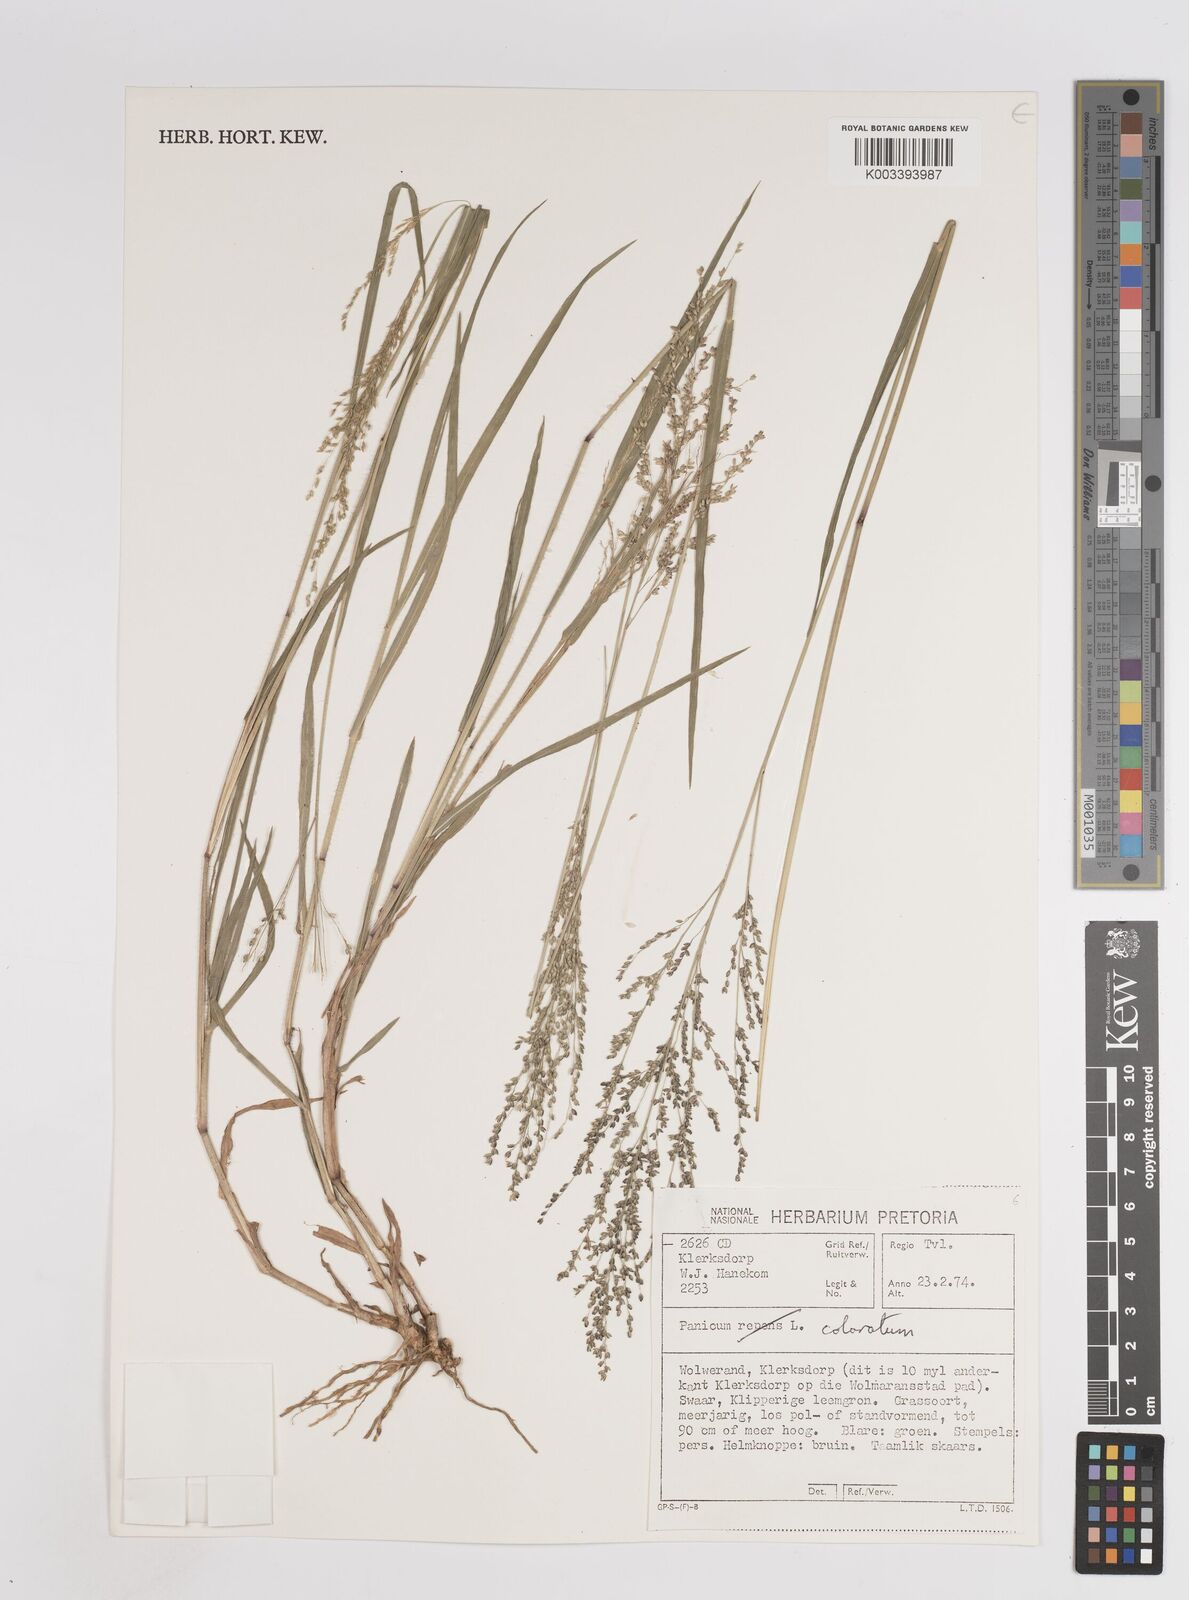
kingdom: Plantae
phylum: Tracheophyta
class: Liliopsida
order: Poales
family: Poaceae
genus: Panicum
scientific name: Panicum coloratum
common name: Kleingrass
